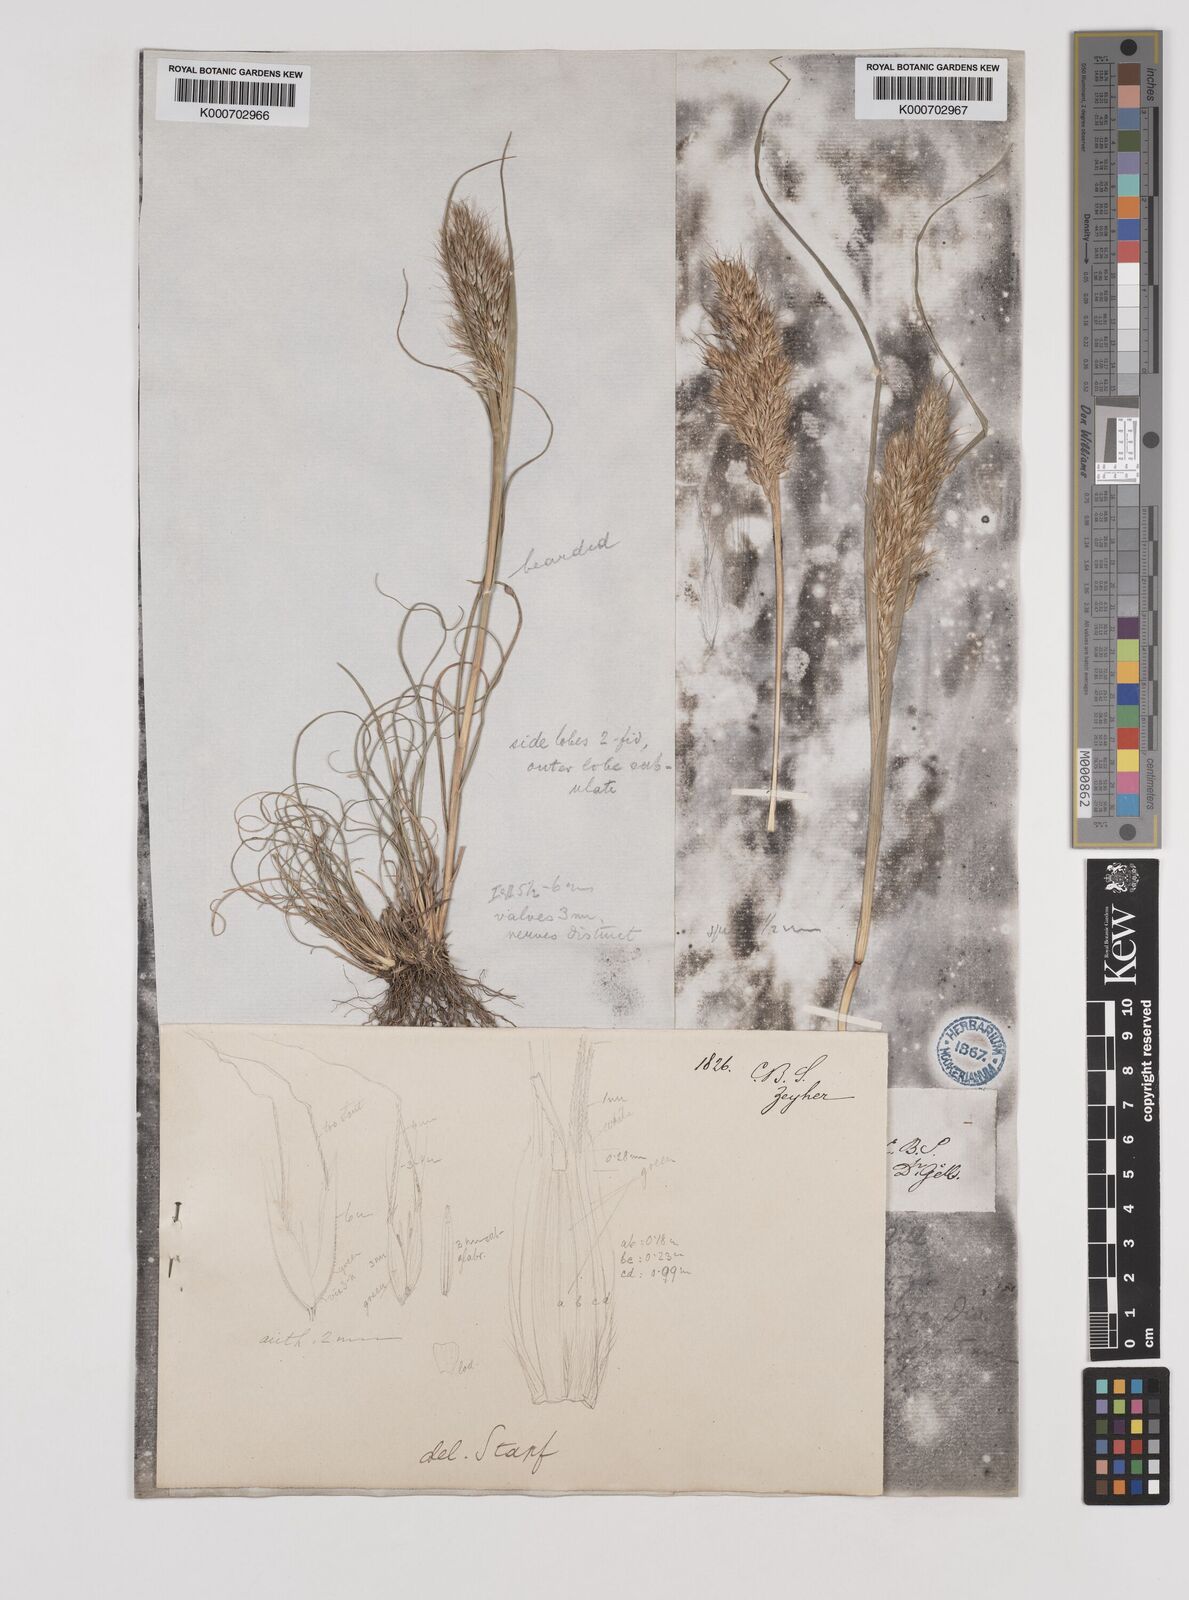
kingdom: Plantae
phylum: Tracheophyta
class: Liliopsida
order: Poales
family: Poaceae
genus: Pentameris
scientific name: Pentameris pallida
